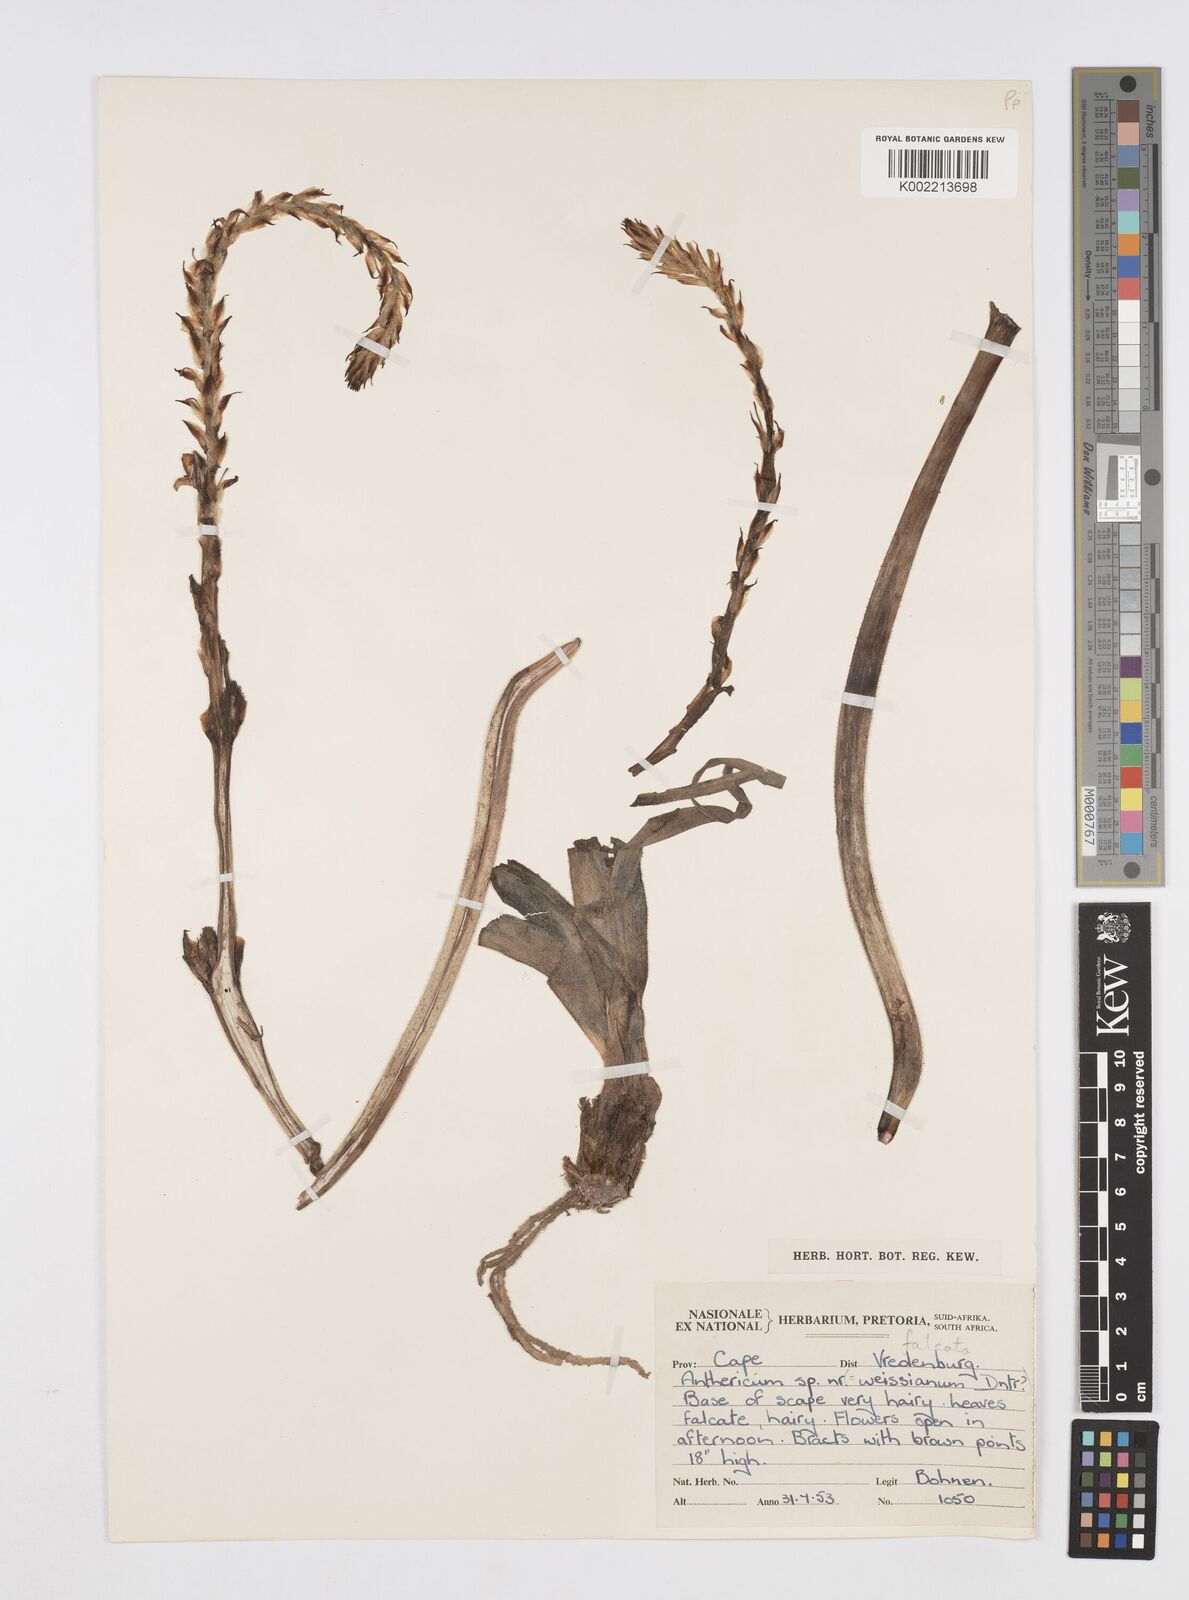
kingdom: Plantae
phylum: Tracheophyta
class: Liliopsida
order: Asparagales
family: Asphodelaceae
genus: Trachyandra
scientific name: Trachyandra falcata
